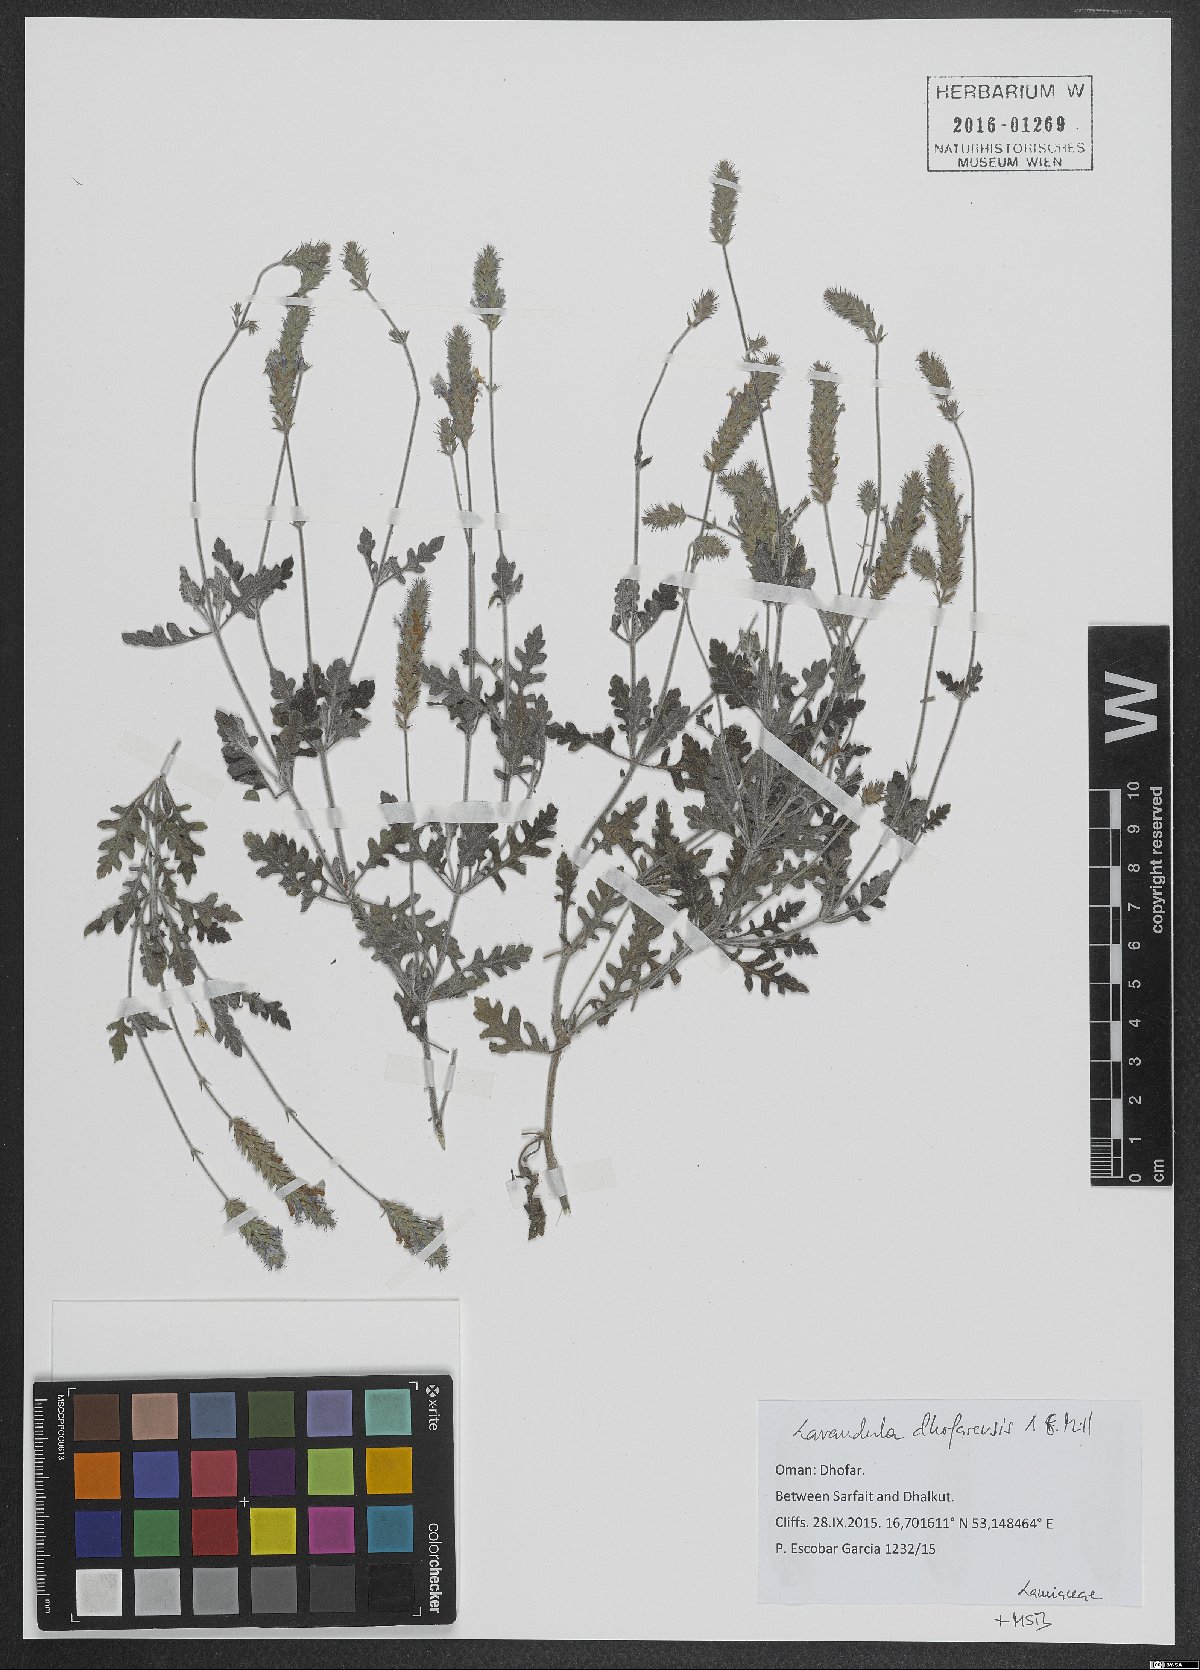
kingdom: Plantae
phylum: Tracheophyta
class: Magnoliopsida
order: Lamiales
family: Lamiaceae
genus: Lavandula
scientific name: Lavandula dhofarensis
